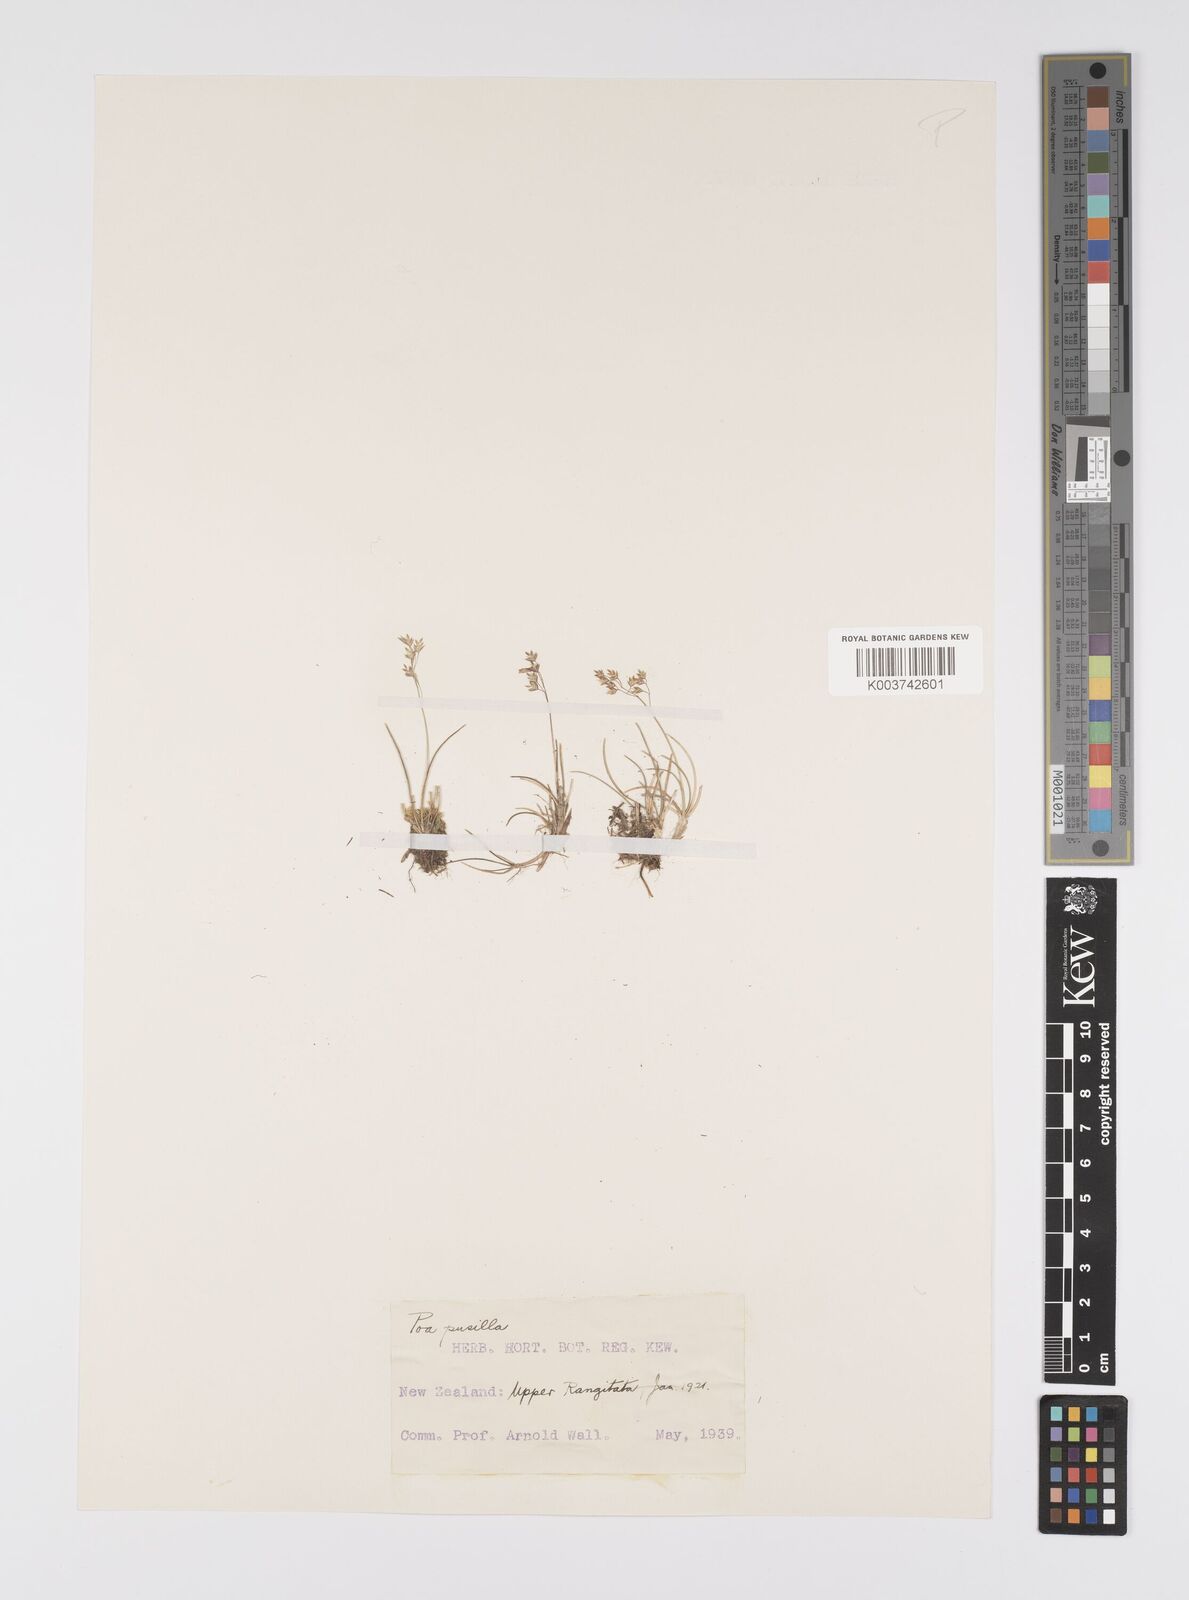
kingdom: Plantae
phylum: Tracheophyta
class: Liliopsida
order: Poales
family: Poaceae
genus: Poa
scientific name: Poa anceps
